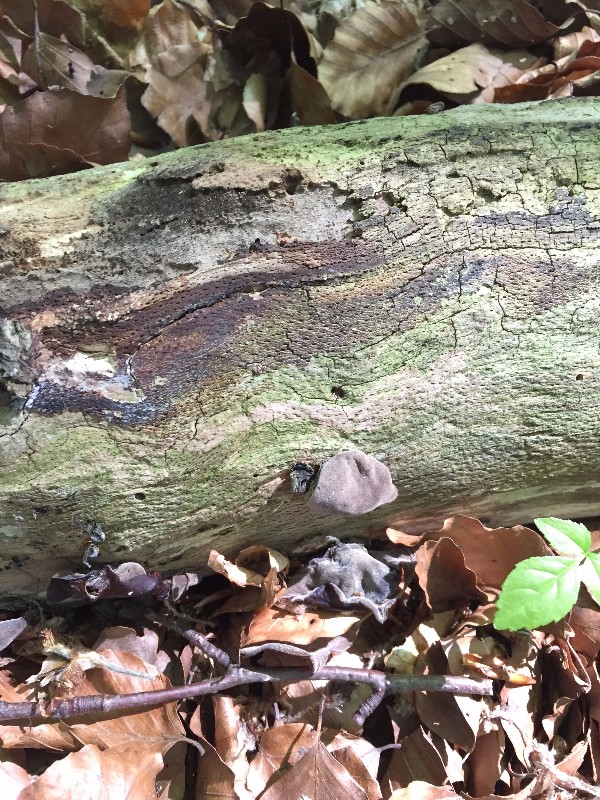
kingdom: Fungi
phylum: Basidiomycota
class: Agaricomycetes
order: Auriculariales
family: Auriculariaceae
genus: Auricularia
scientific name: Auricularia auricula-judae
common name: almindelig judasøre
